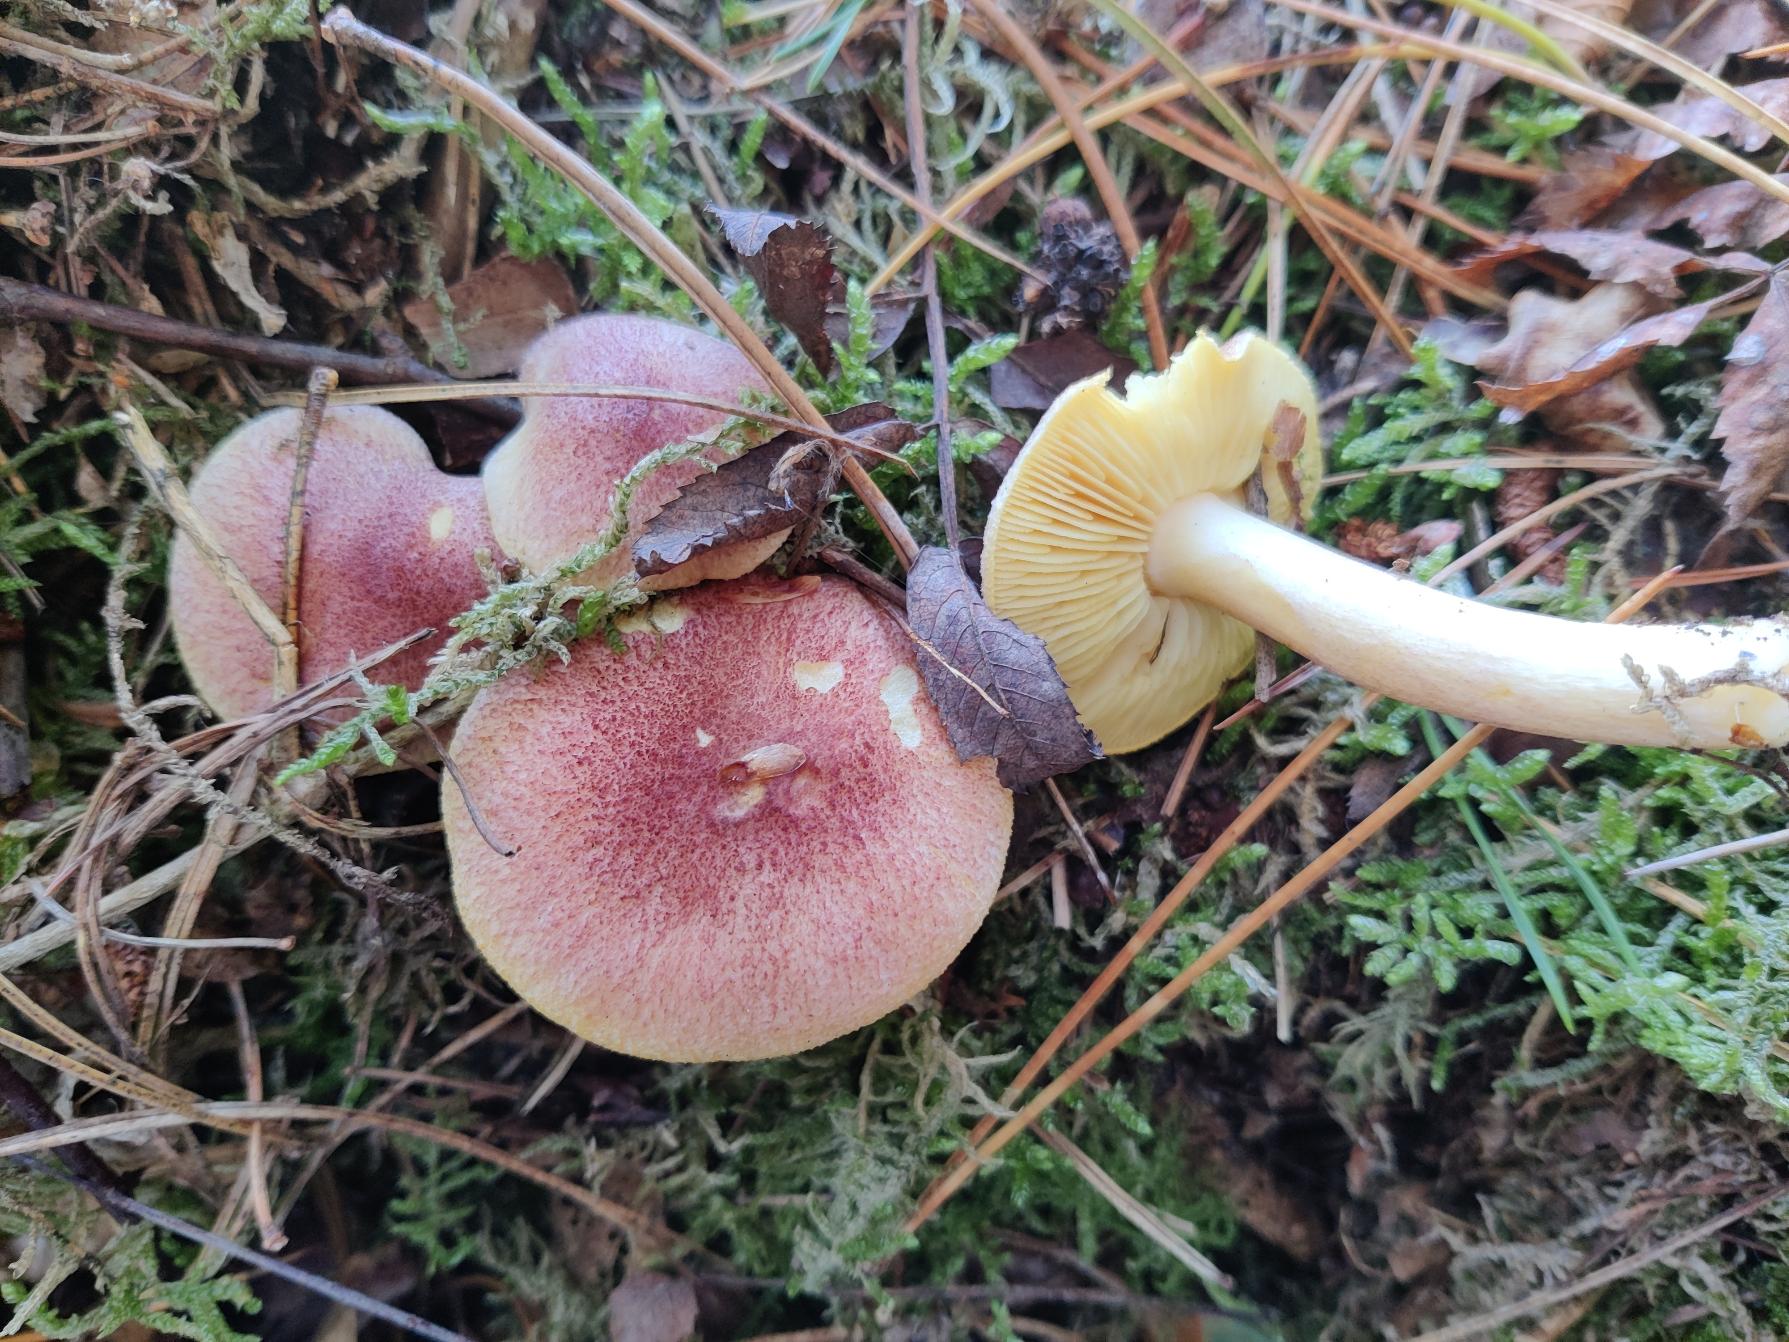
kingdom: Fungi
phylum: Basidiomycota
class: Agaricomycetes
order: Agaricales
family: Tricholomataceae
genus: Tricholomopsis
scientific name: Tricholomopsis rutilans
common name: Purpur-væbnerhat
